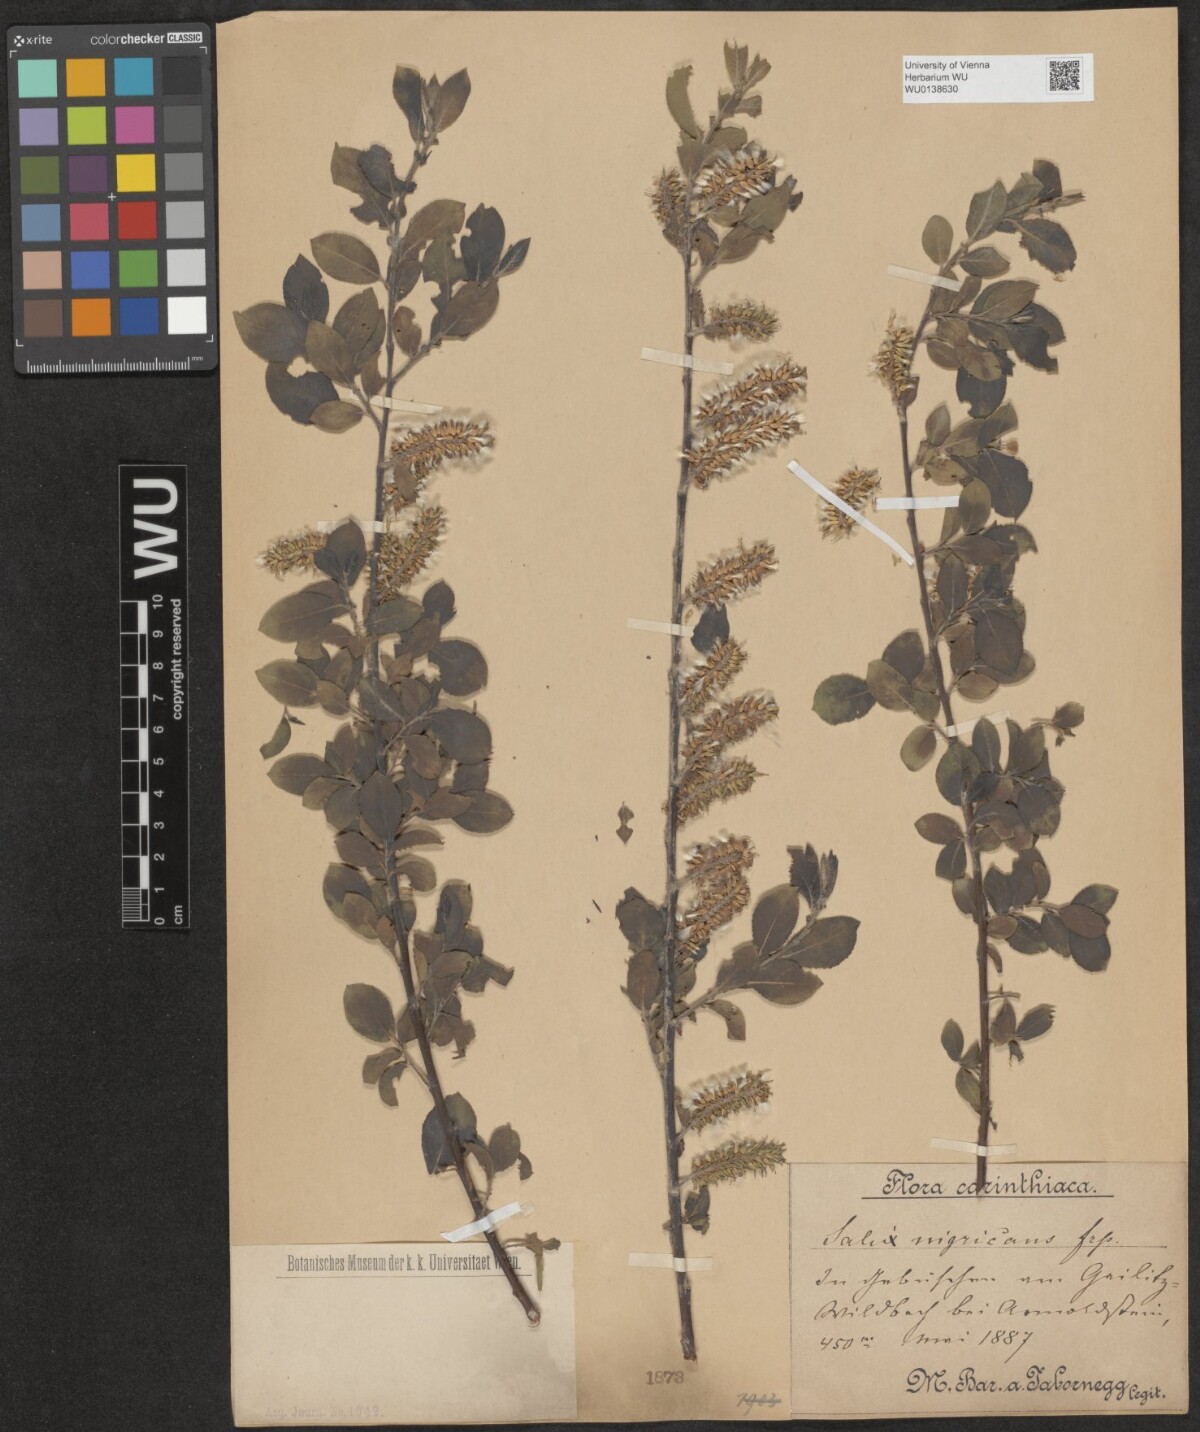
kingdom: Plantae
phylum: Tracheophyta
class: Magnoliopsida
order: Malpighiales
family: Salicaceae
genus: Salix
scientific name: Salix myrsinifolia
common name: Dark-leaved willow
